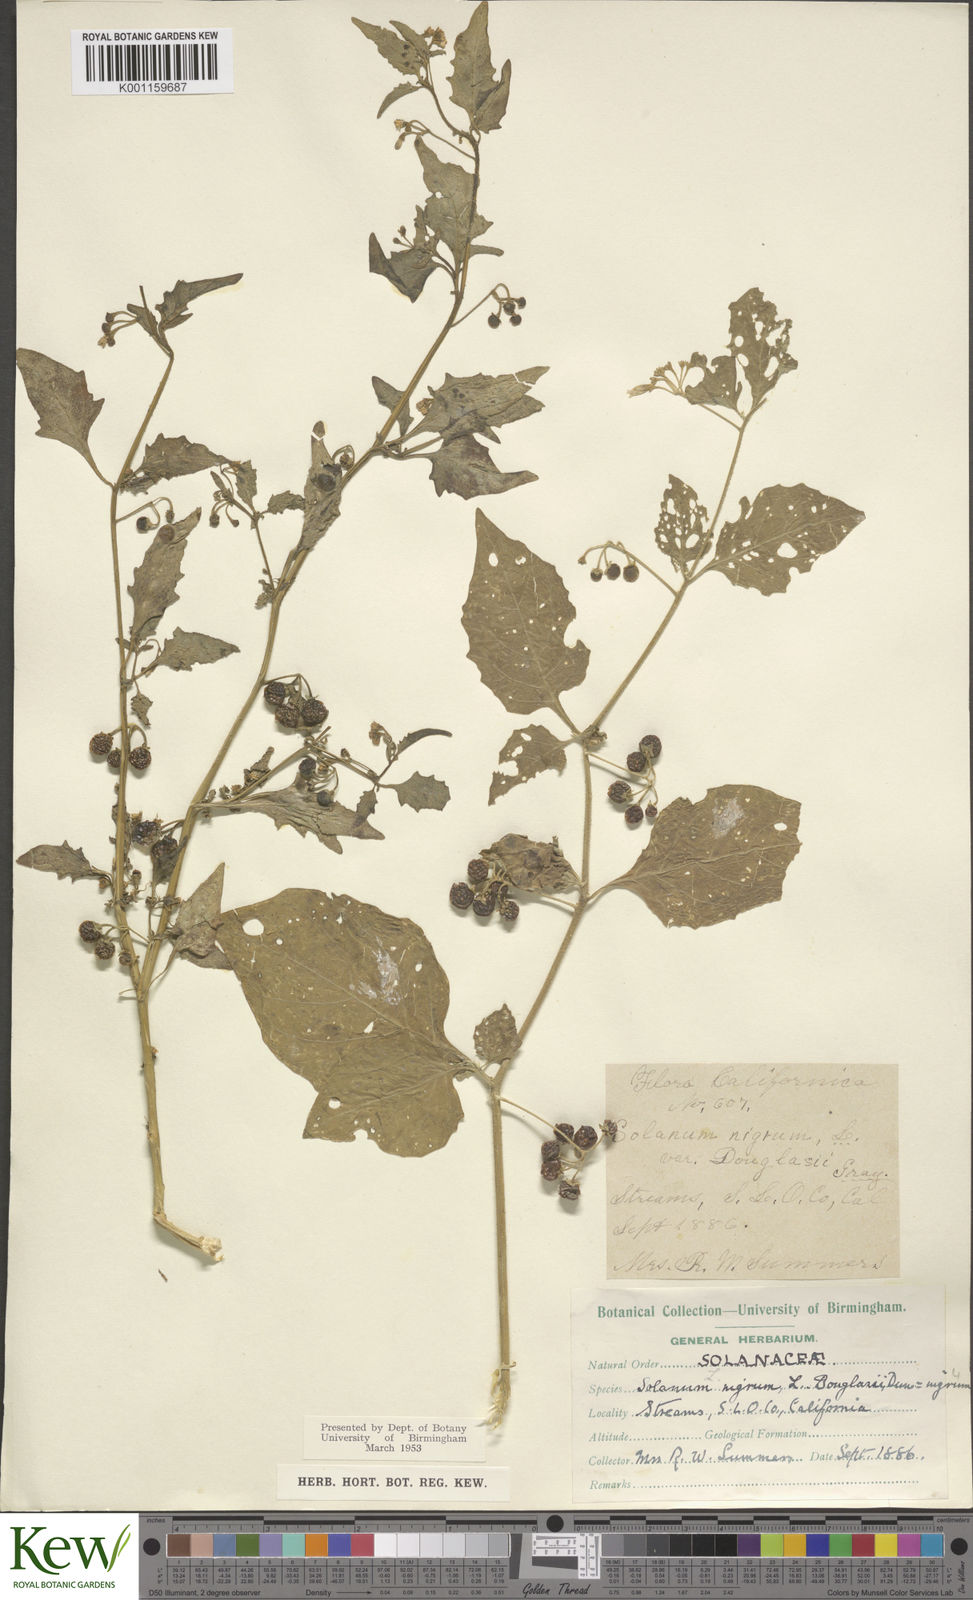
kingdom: Plantae
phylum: Tracheophyta
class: Magnoliopsida
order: Solanales
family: Solanaceae
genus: Solanum
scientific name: Solanum nigrum
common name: Black nightshade
